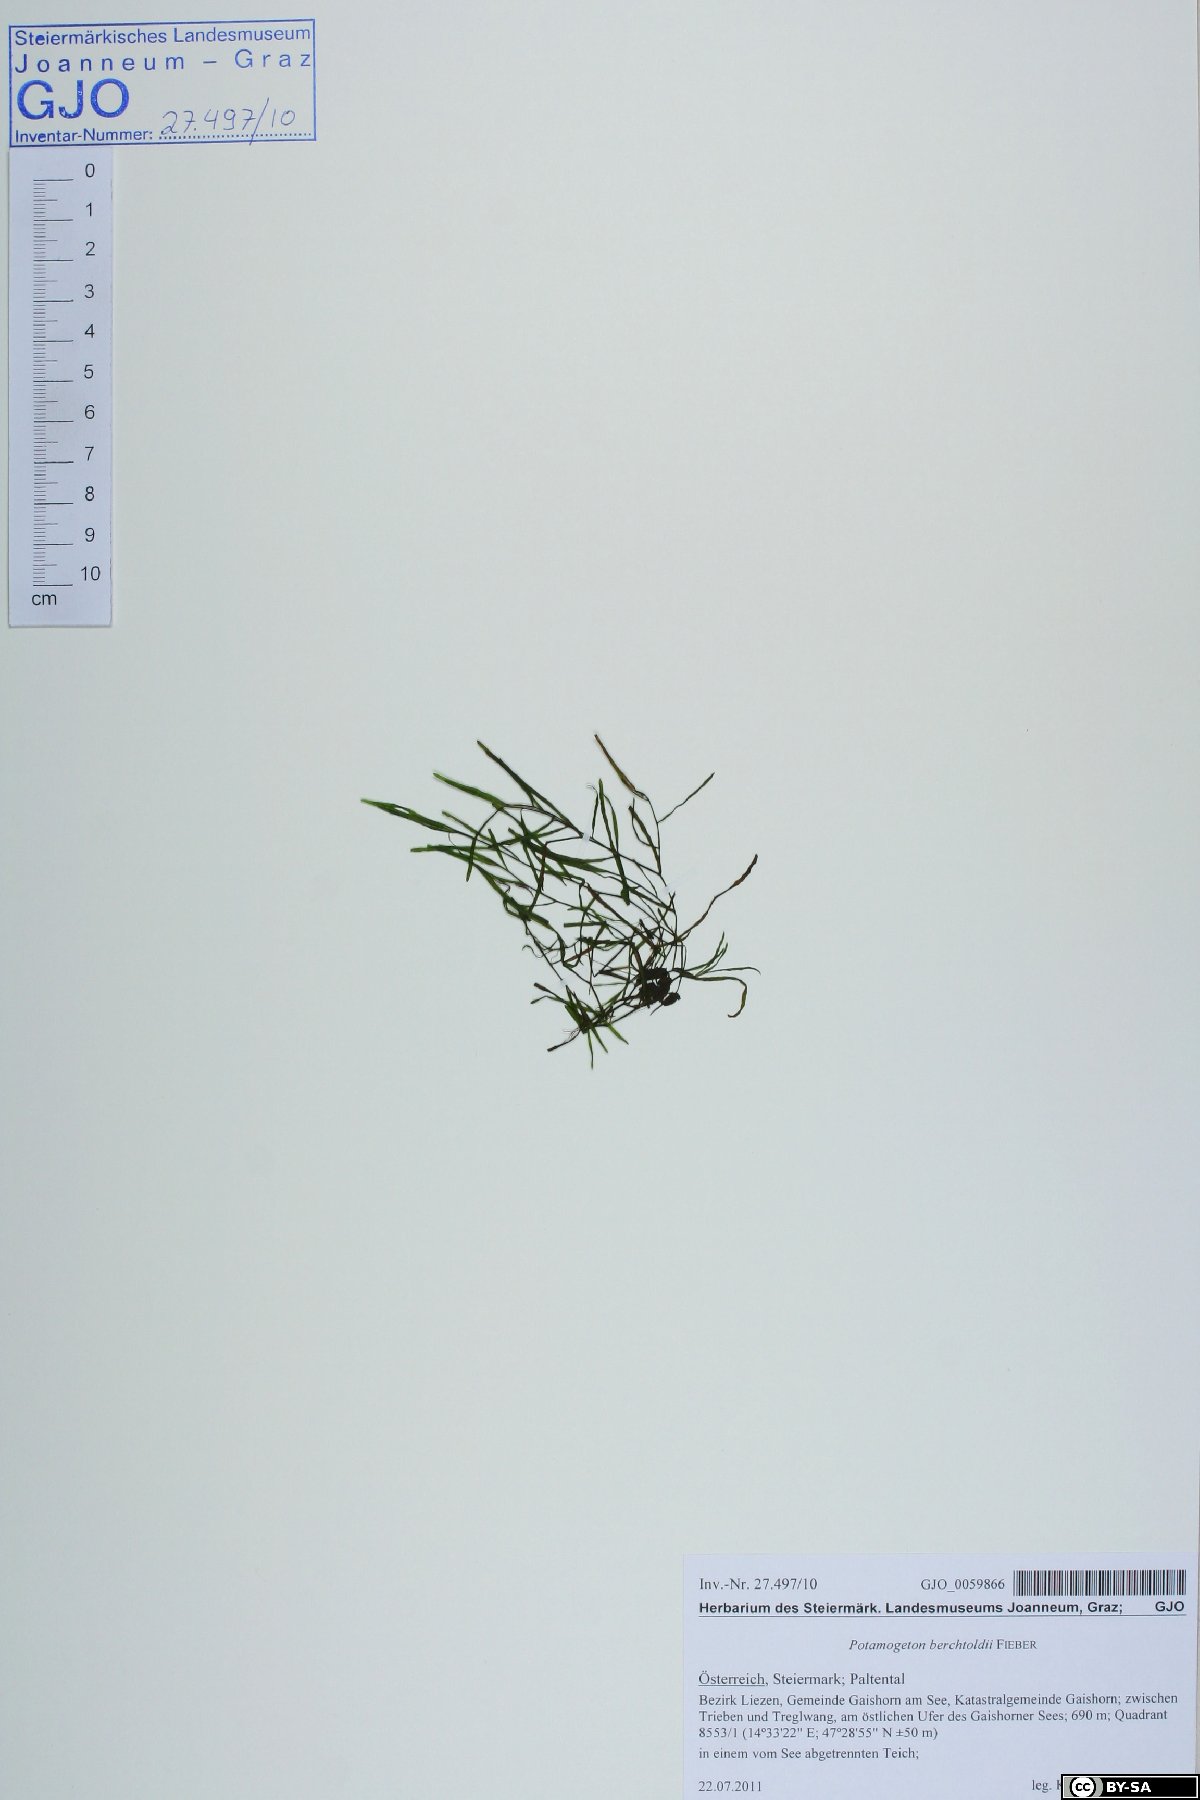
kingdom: Plantae
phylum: Tracheophyta
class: Liliopsida
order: Alismatales
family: Potamogetonaceae
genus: Potamogeton
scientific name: Potamogeton berchtoldii
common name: Small pondweed
